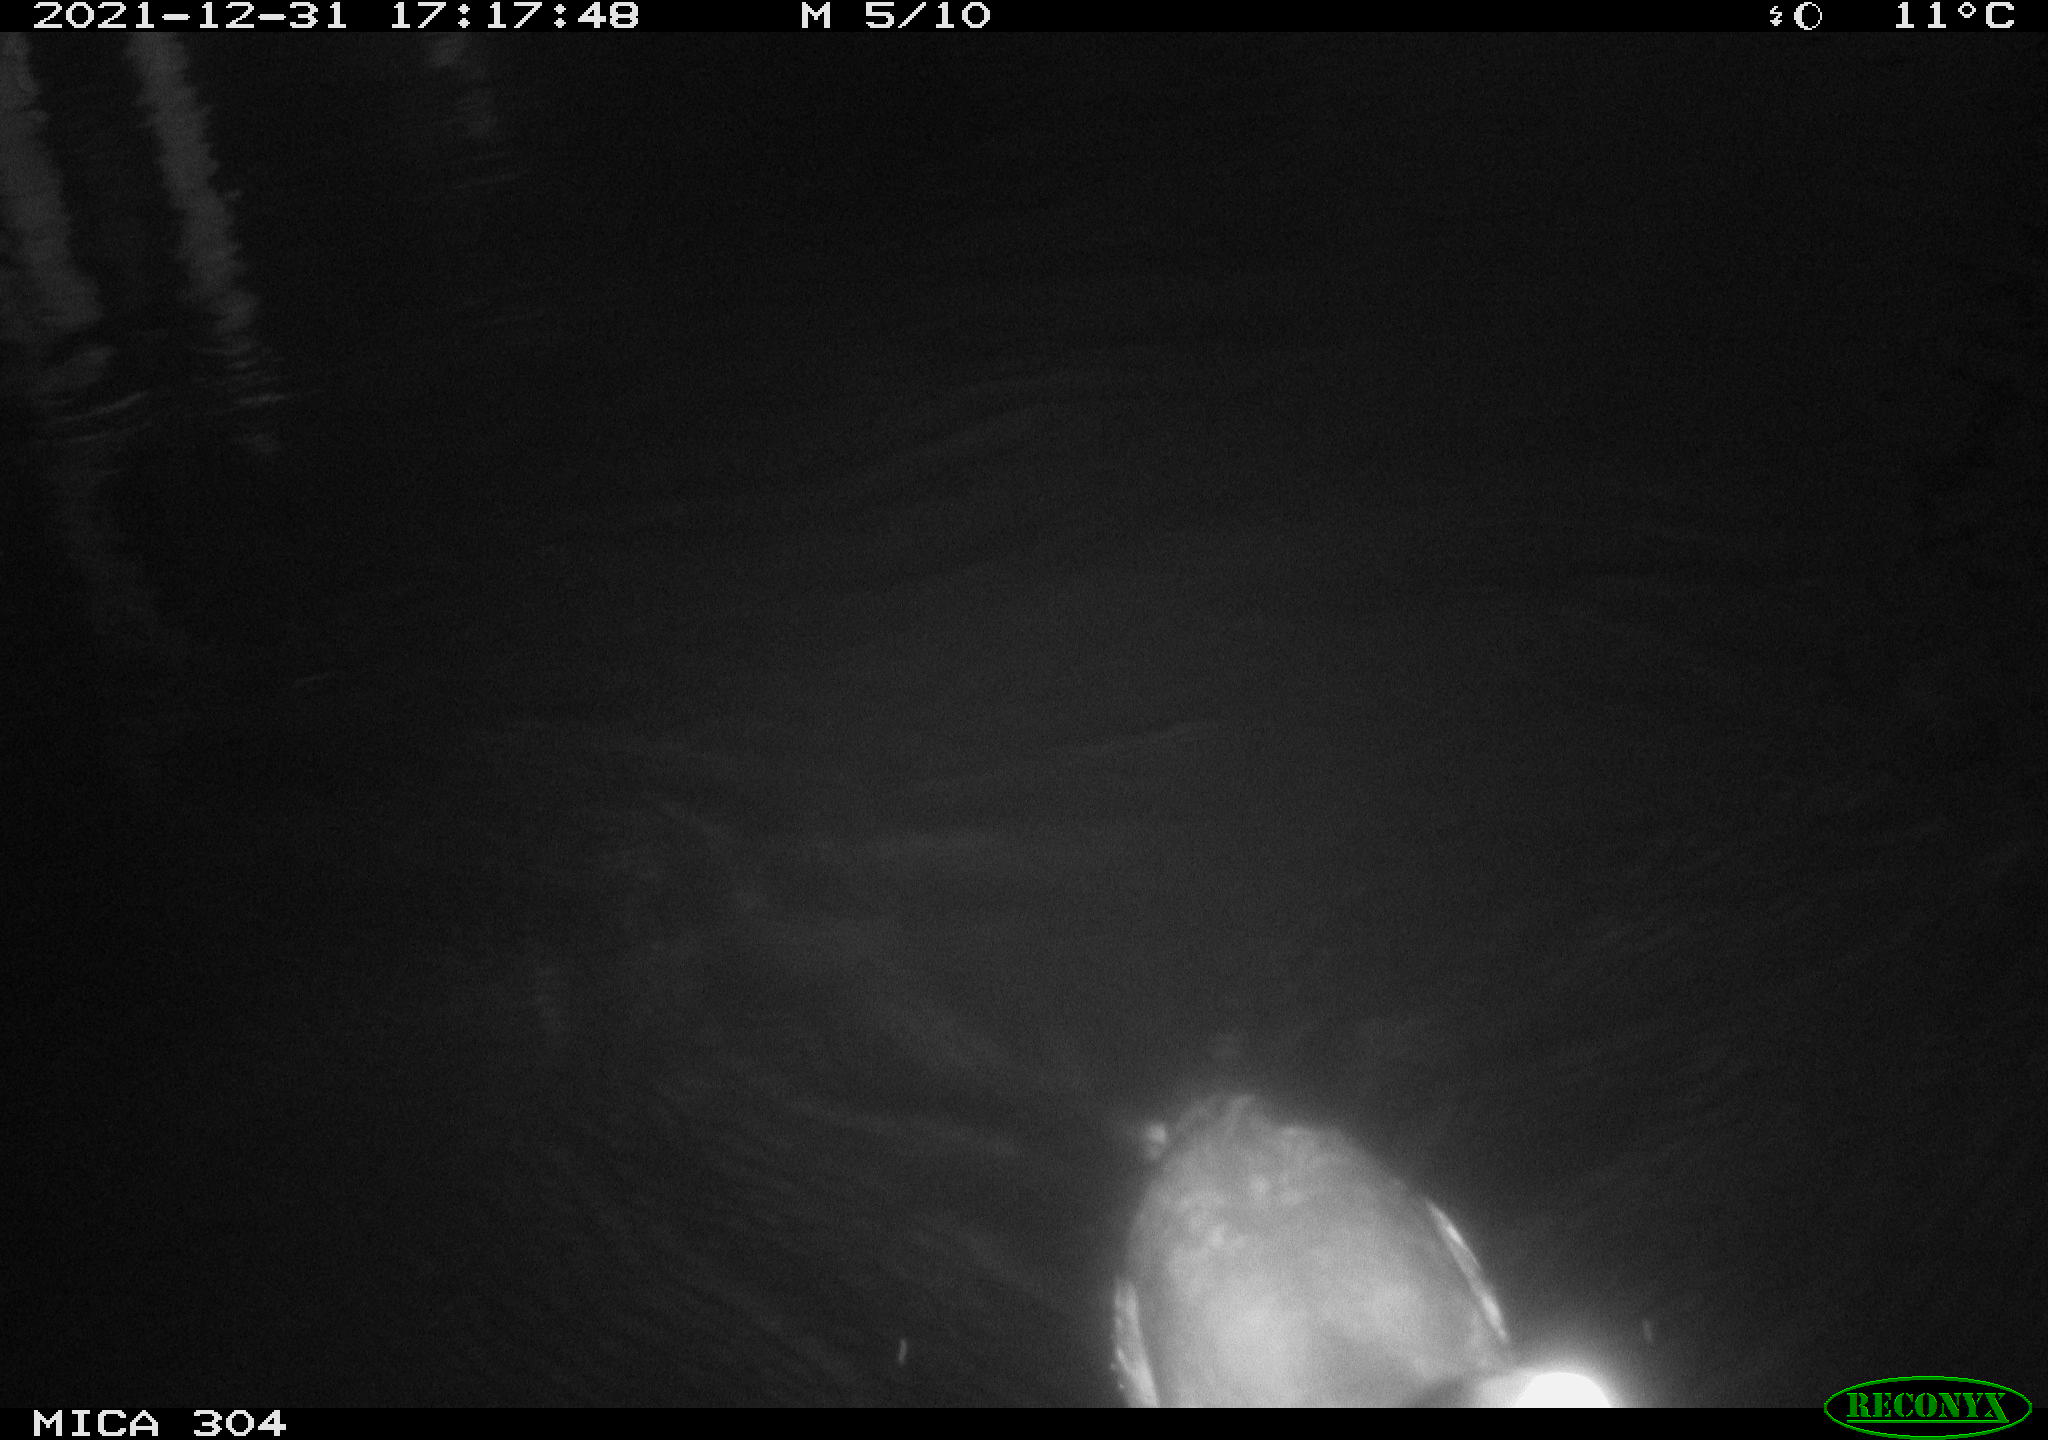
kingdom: Animalia
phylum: Chordata
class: Aves
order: Gruiformes
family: Rallidae
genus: Fulica
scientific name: Fulica atra
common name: Eurasian coot
